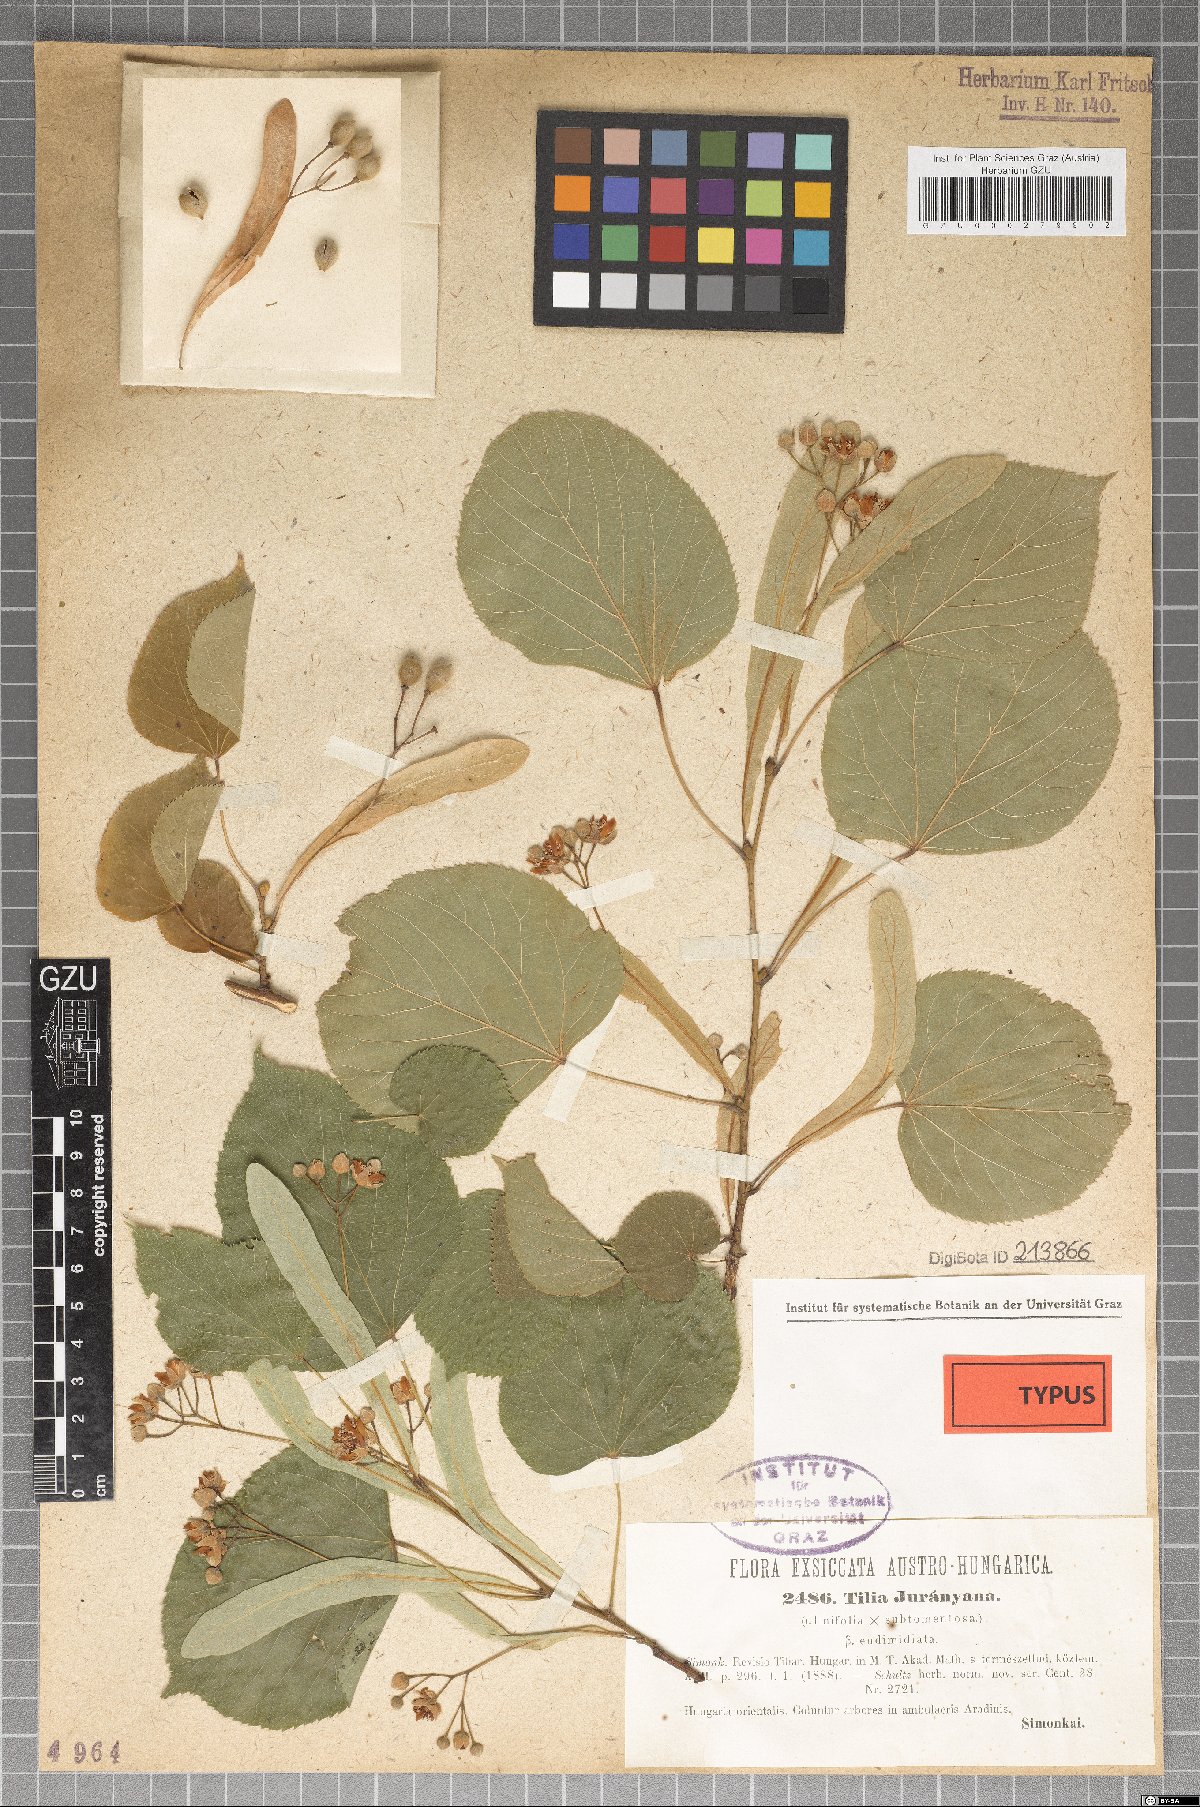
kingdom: Plantae
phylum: Tracheophyta
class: Magnoliopsida
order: Malvales
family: Malvaceae
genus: Tilia
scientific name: Tilia juranyiana
